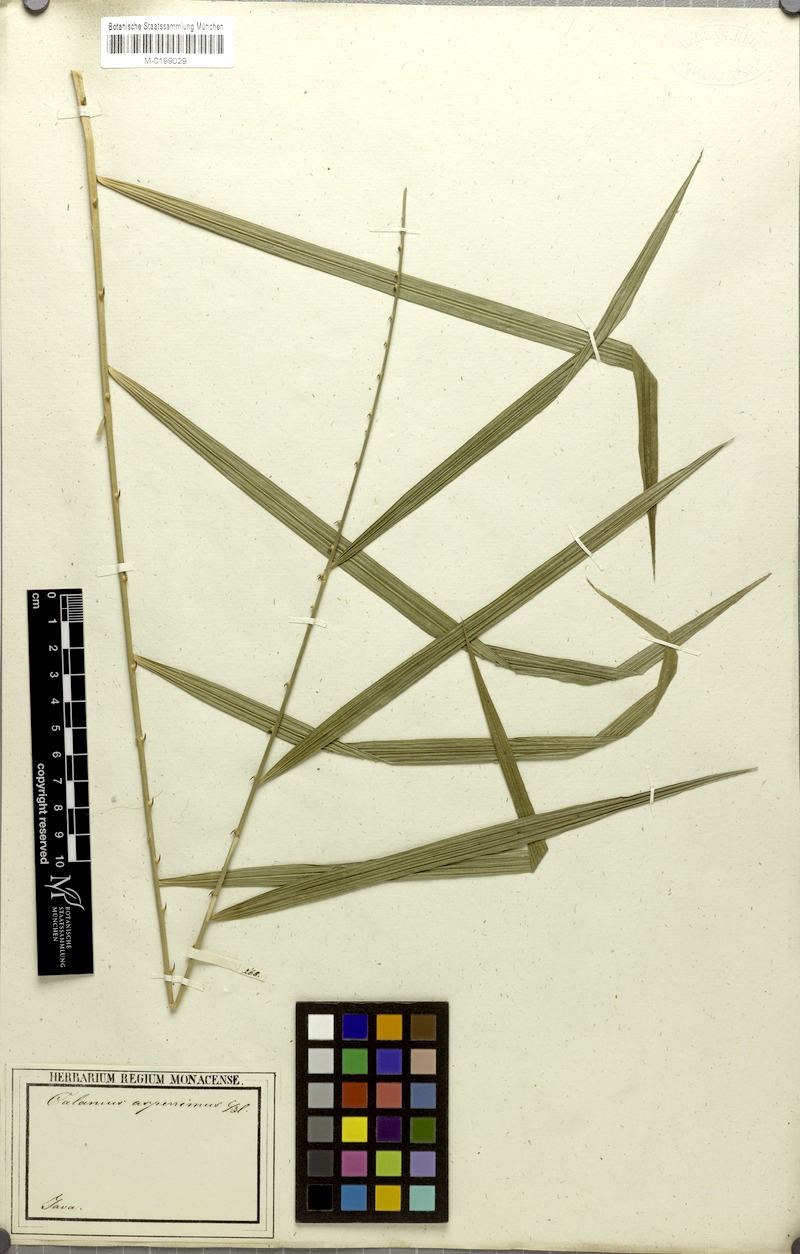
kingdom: Plantae
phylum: Tracheophyta
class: Liliopsida
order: Arecales
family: Arecaceae
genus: Calamus
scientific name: Calamus asperrimus
